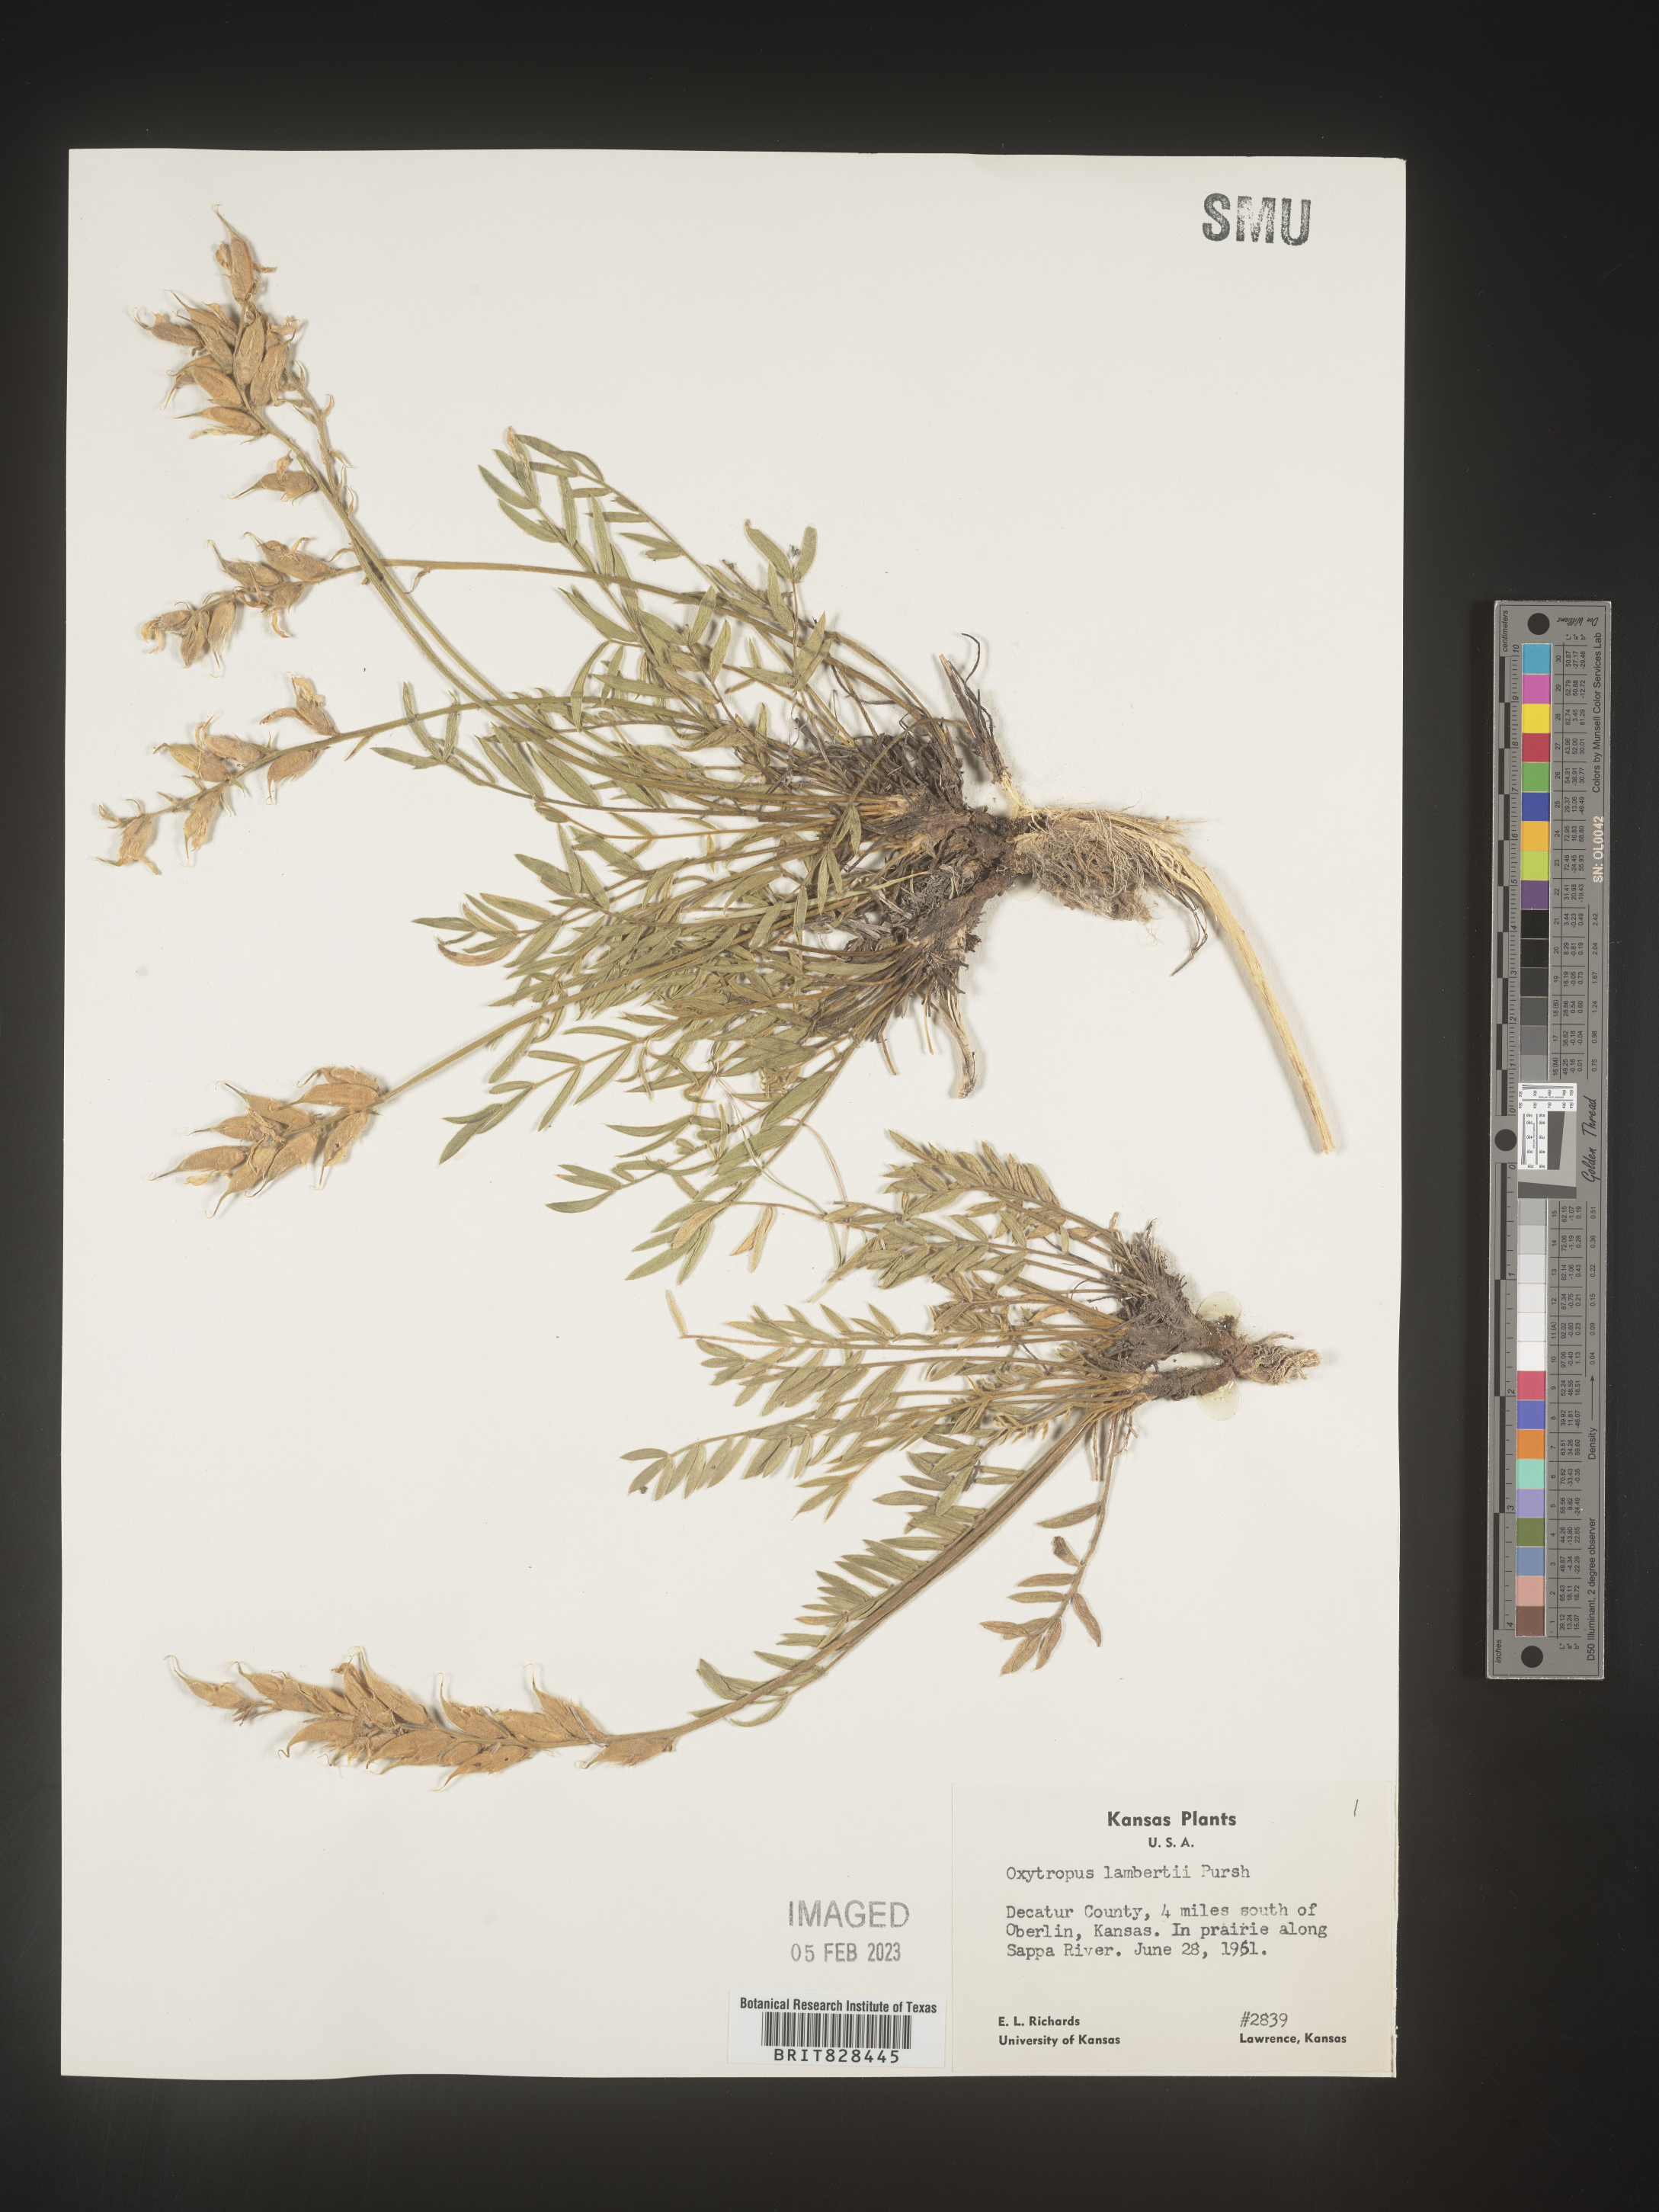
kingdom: Plantae
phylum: Tracheophyta
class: Magnoliopsida
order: Fabales
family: Fabaceae
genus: Oxytropis
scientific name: Oxytropis lambertii
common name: Purple locoweed
